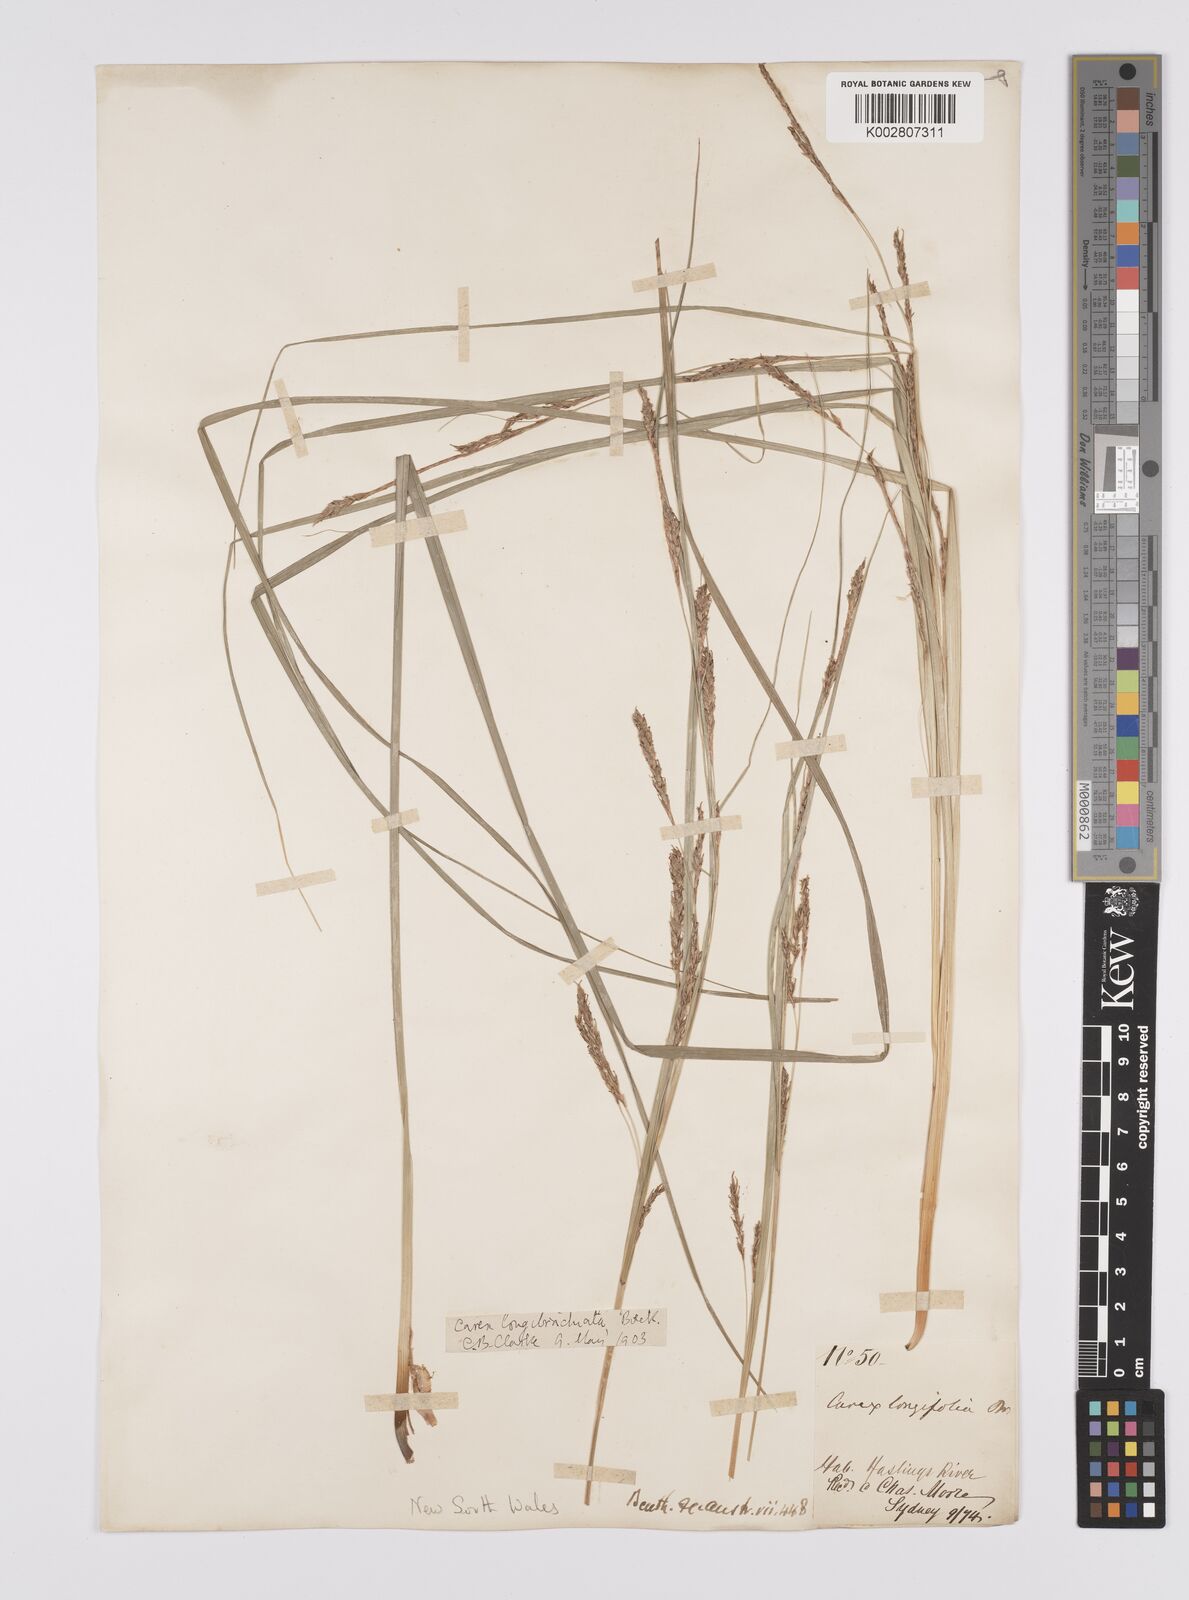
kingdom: Plantae
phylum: Tracheophyta
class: Liliopsida
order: Poales
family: Cyperaceae
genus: Carex
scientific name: Carex pseudocyperus
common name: Cyperus sedge
